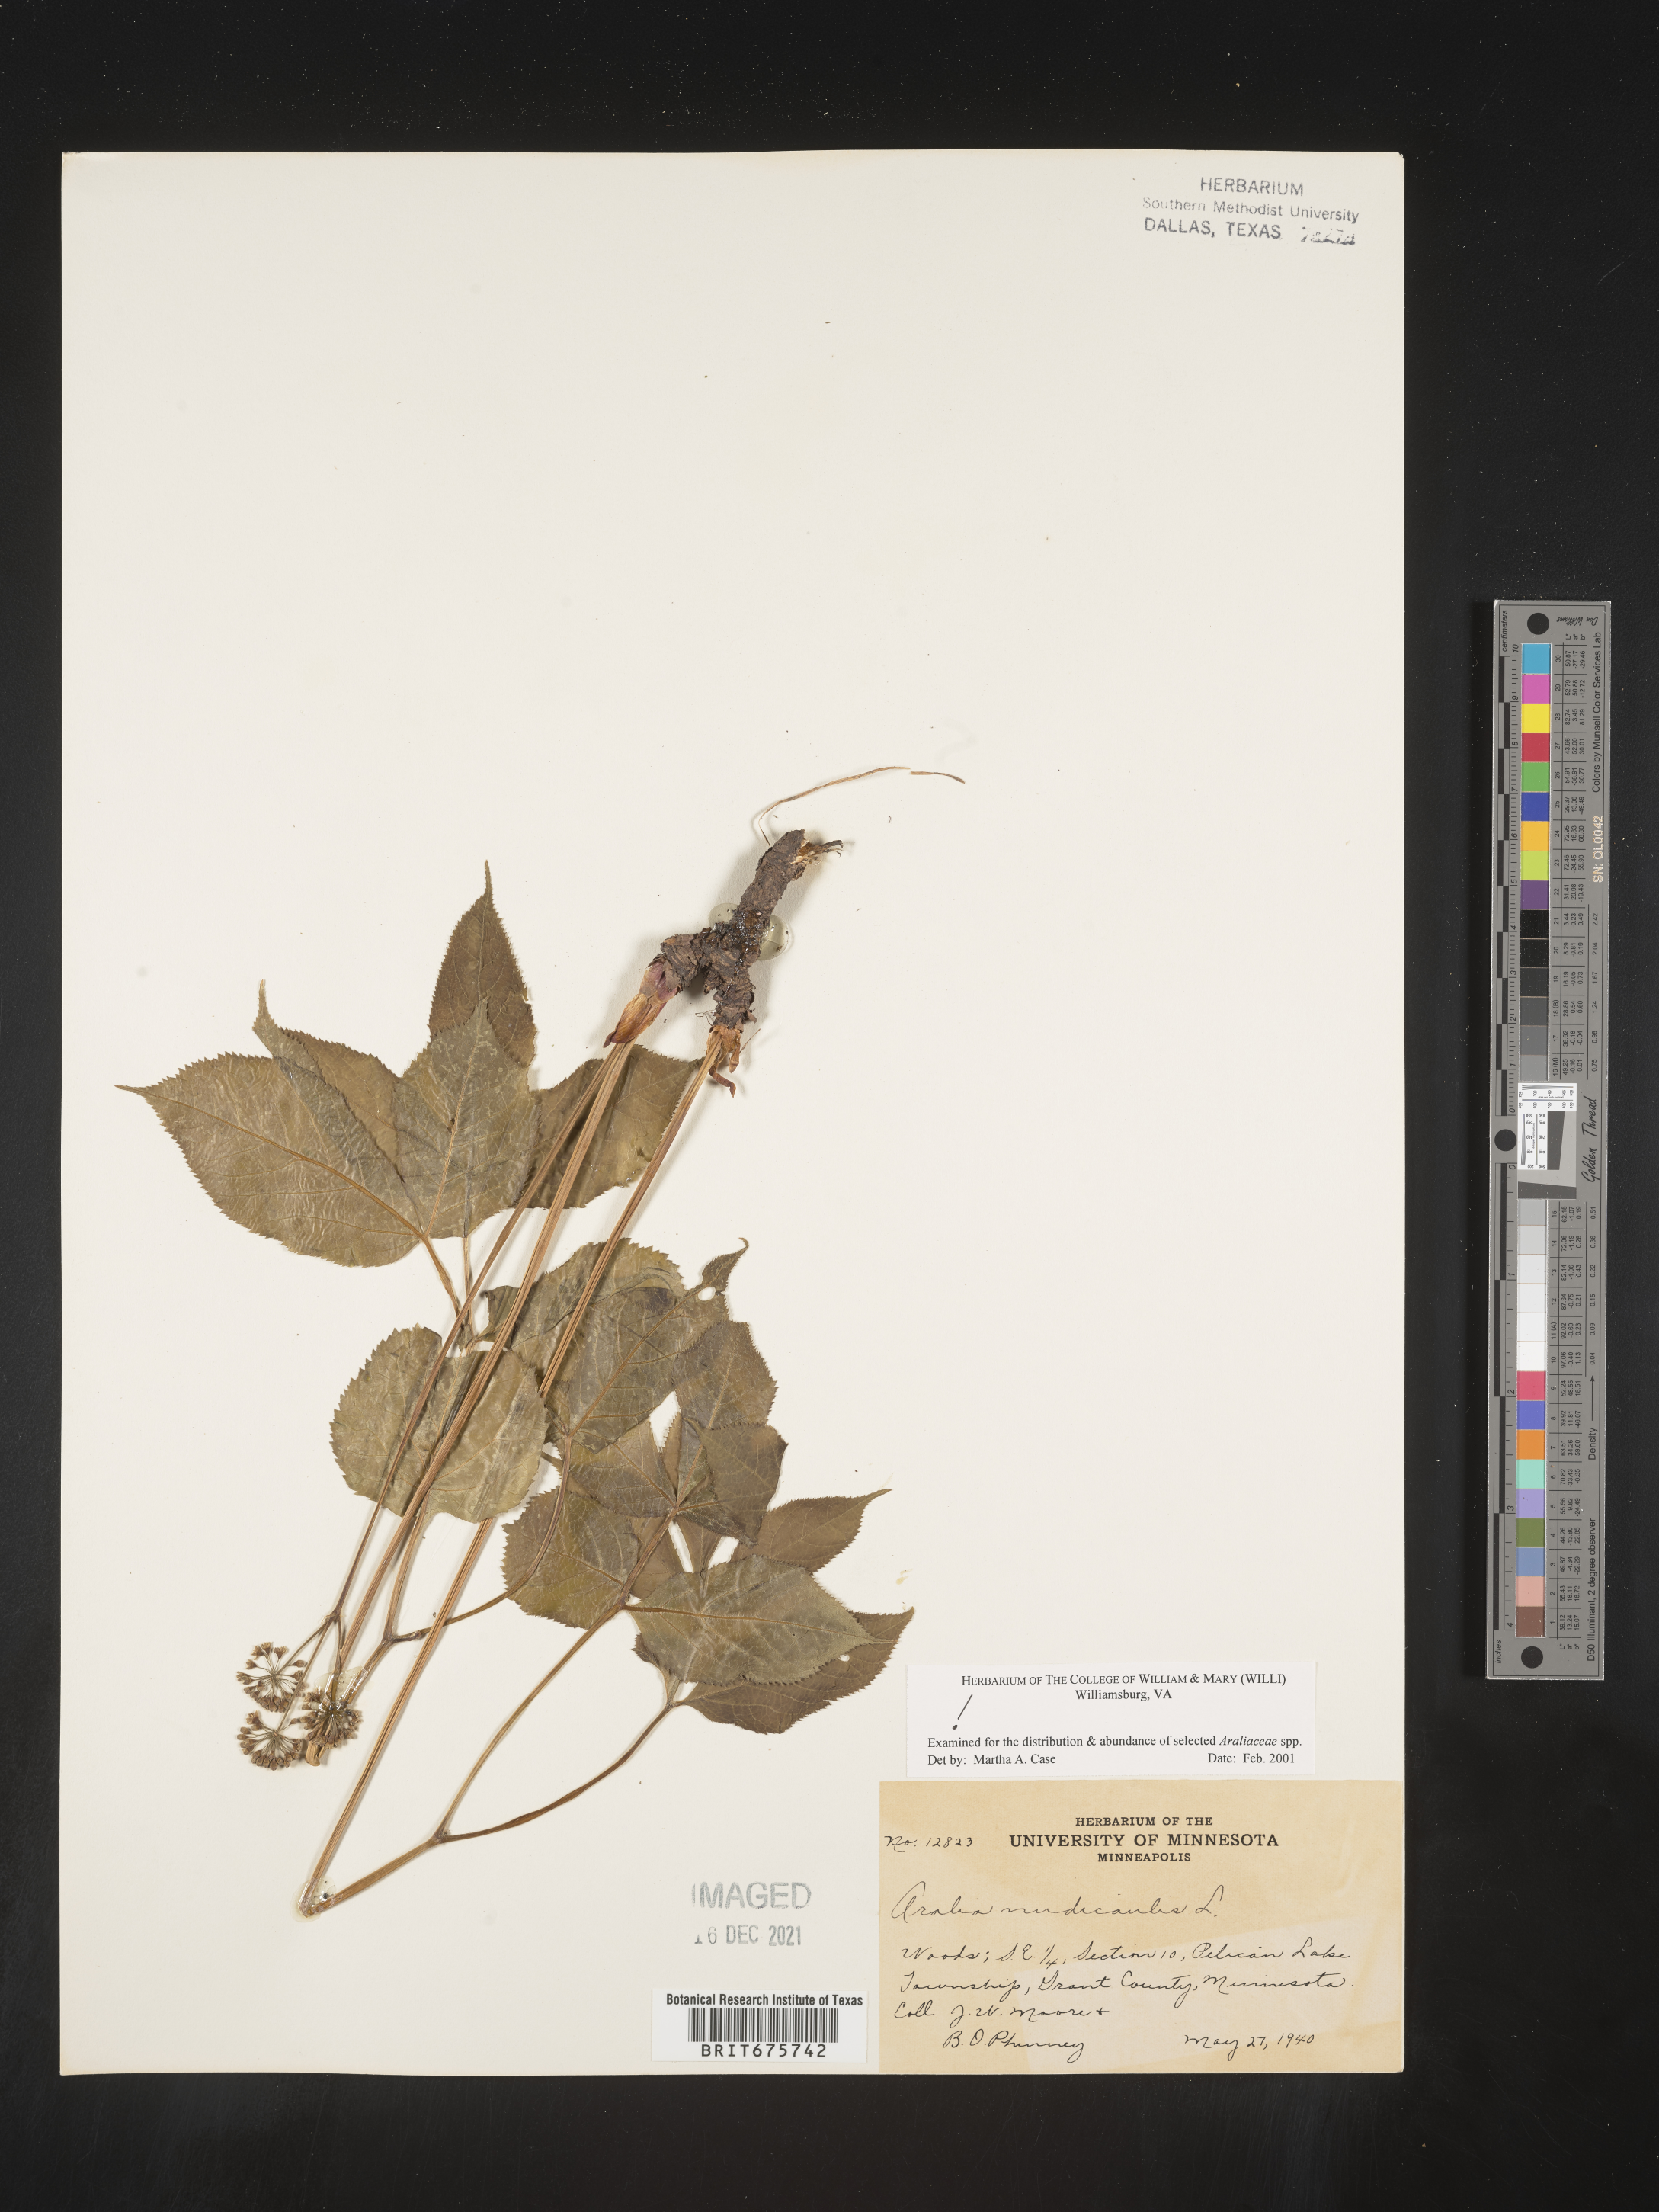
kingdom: Plantae
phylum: Tracheophyta
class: Magnoliopsida
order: Apiales
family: Araliaceae
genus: Aralia
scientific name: Aralia nudicaulis
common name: Wild sarsaparilla
